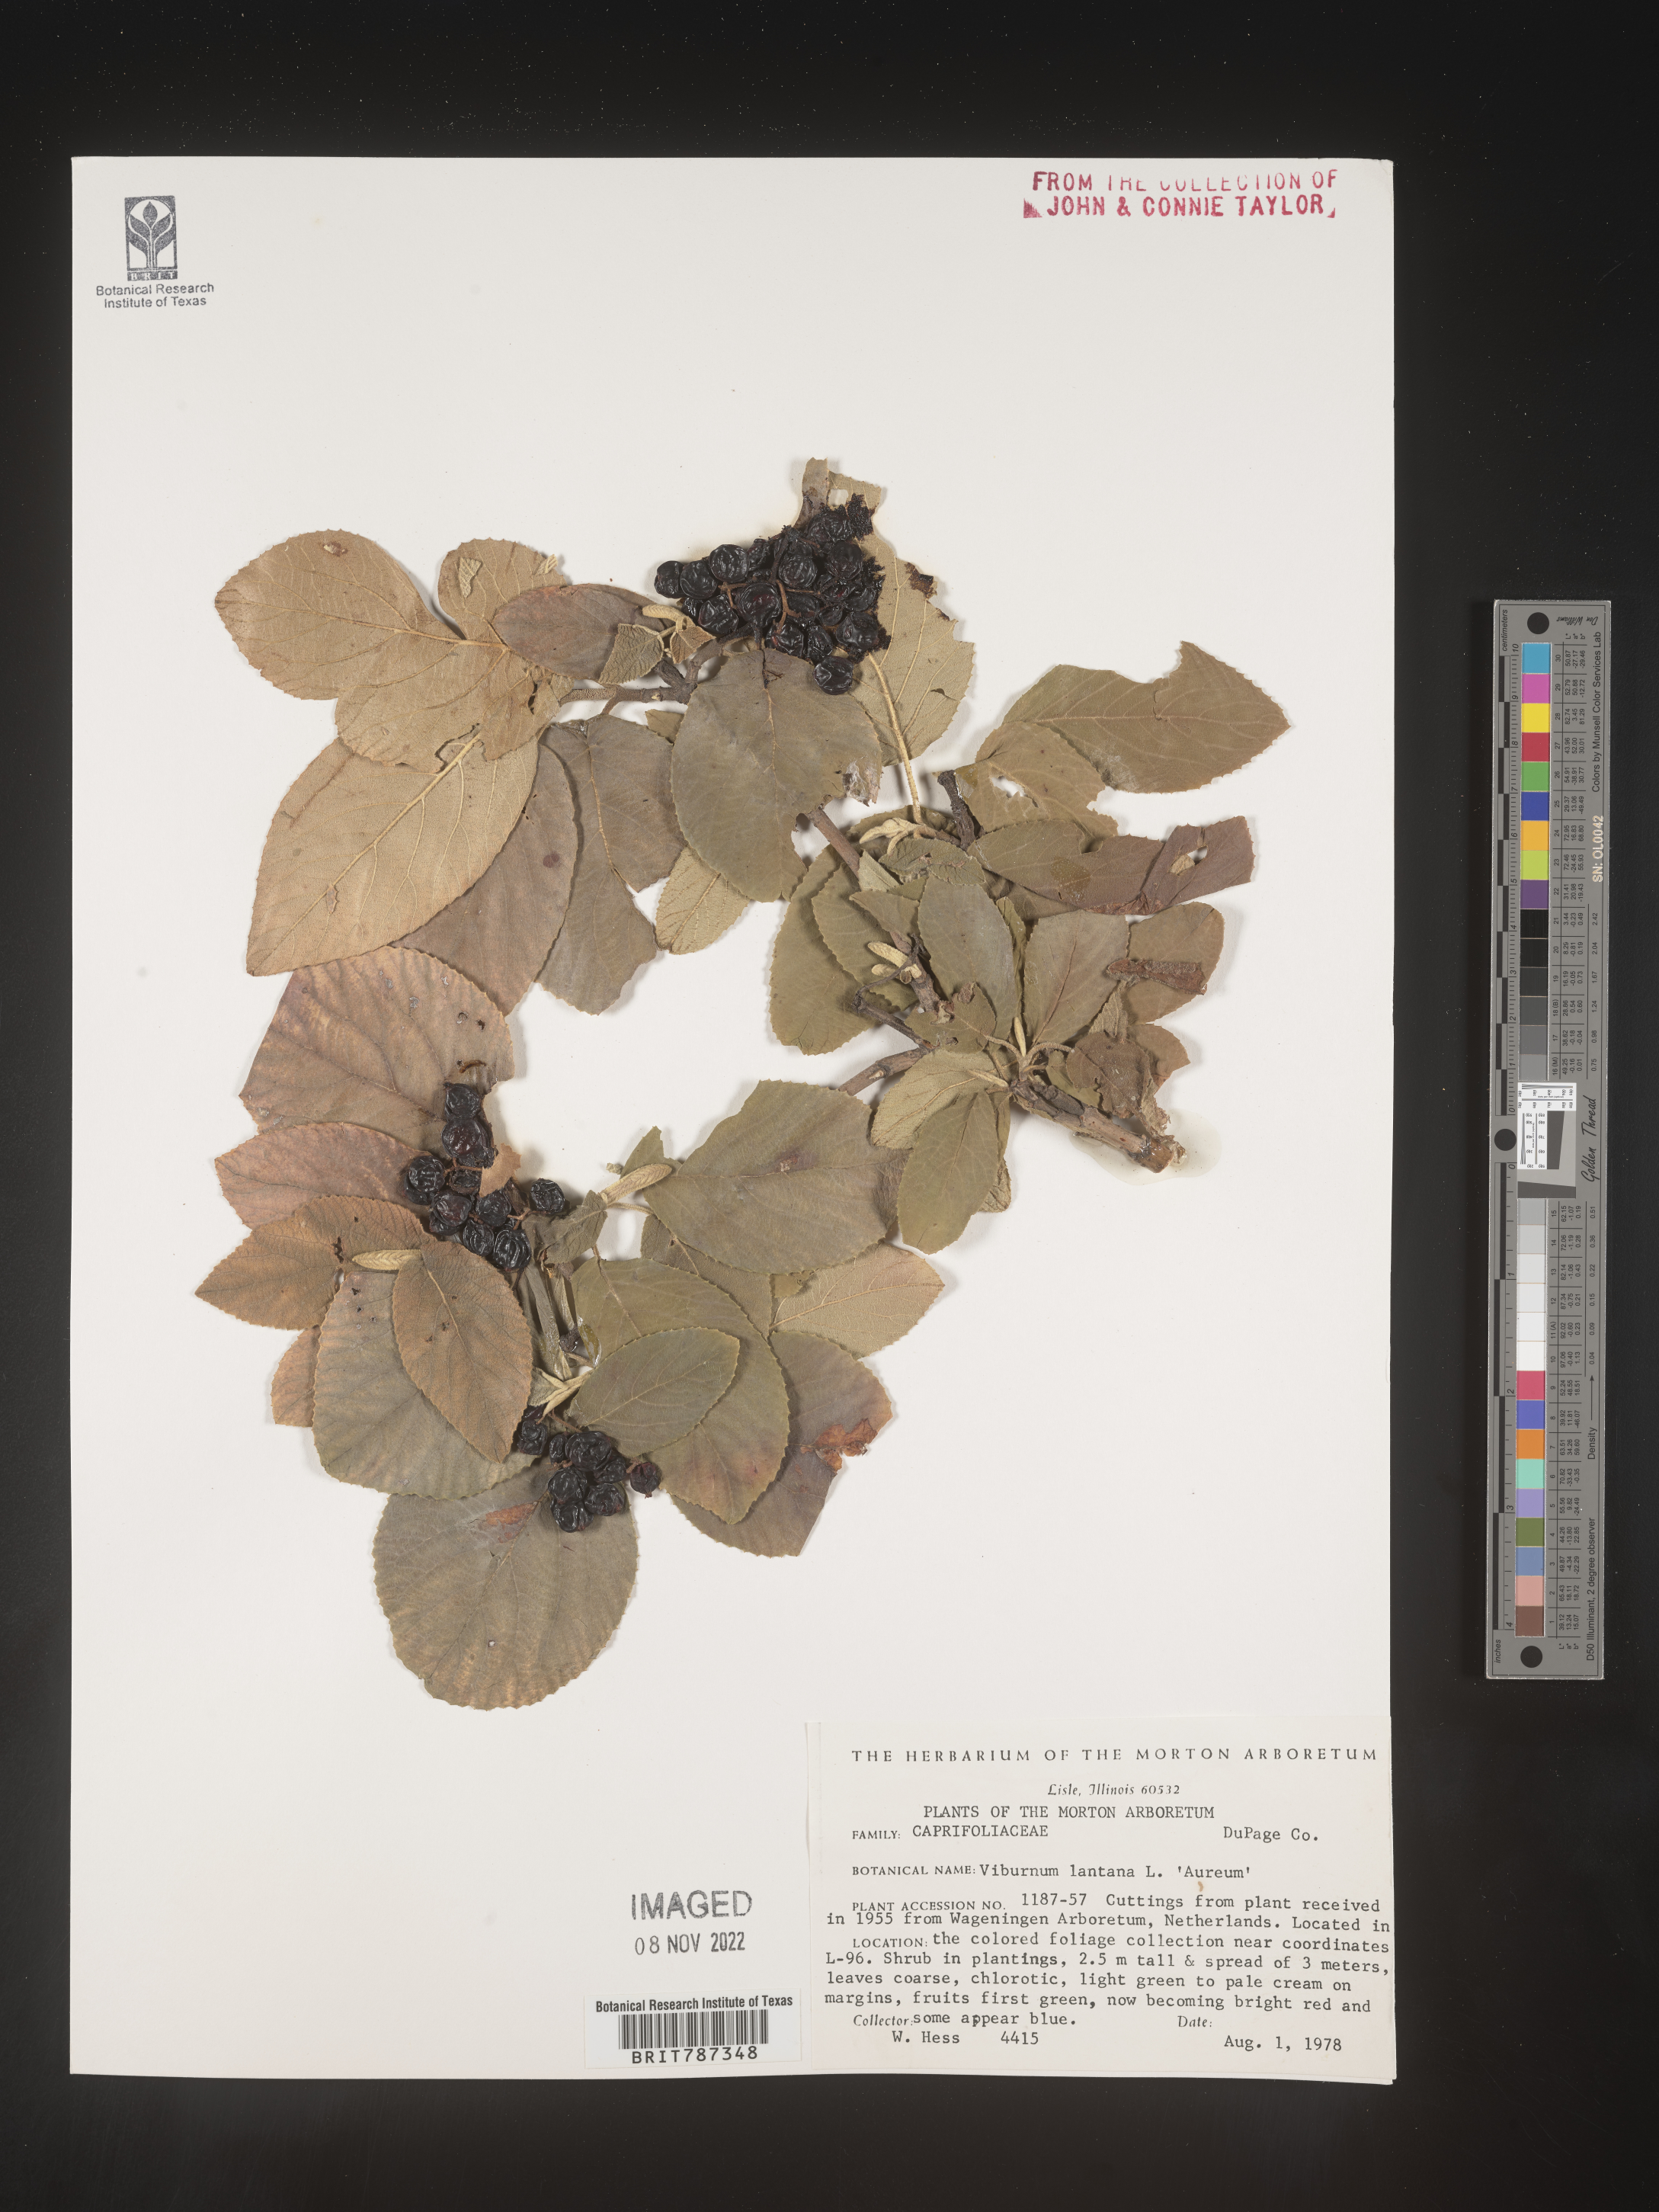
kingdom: Plantae
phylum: Tracheophyta
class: Magnoliopsida
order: Dipsacales
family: Viburnaceae
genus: Viburnum
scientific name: Viburnum
